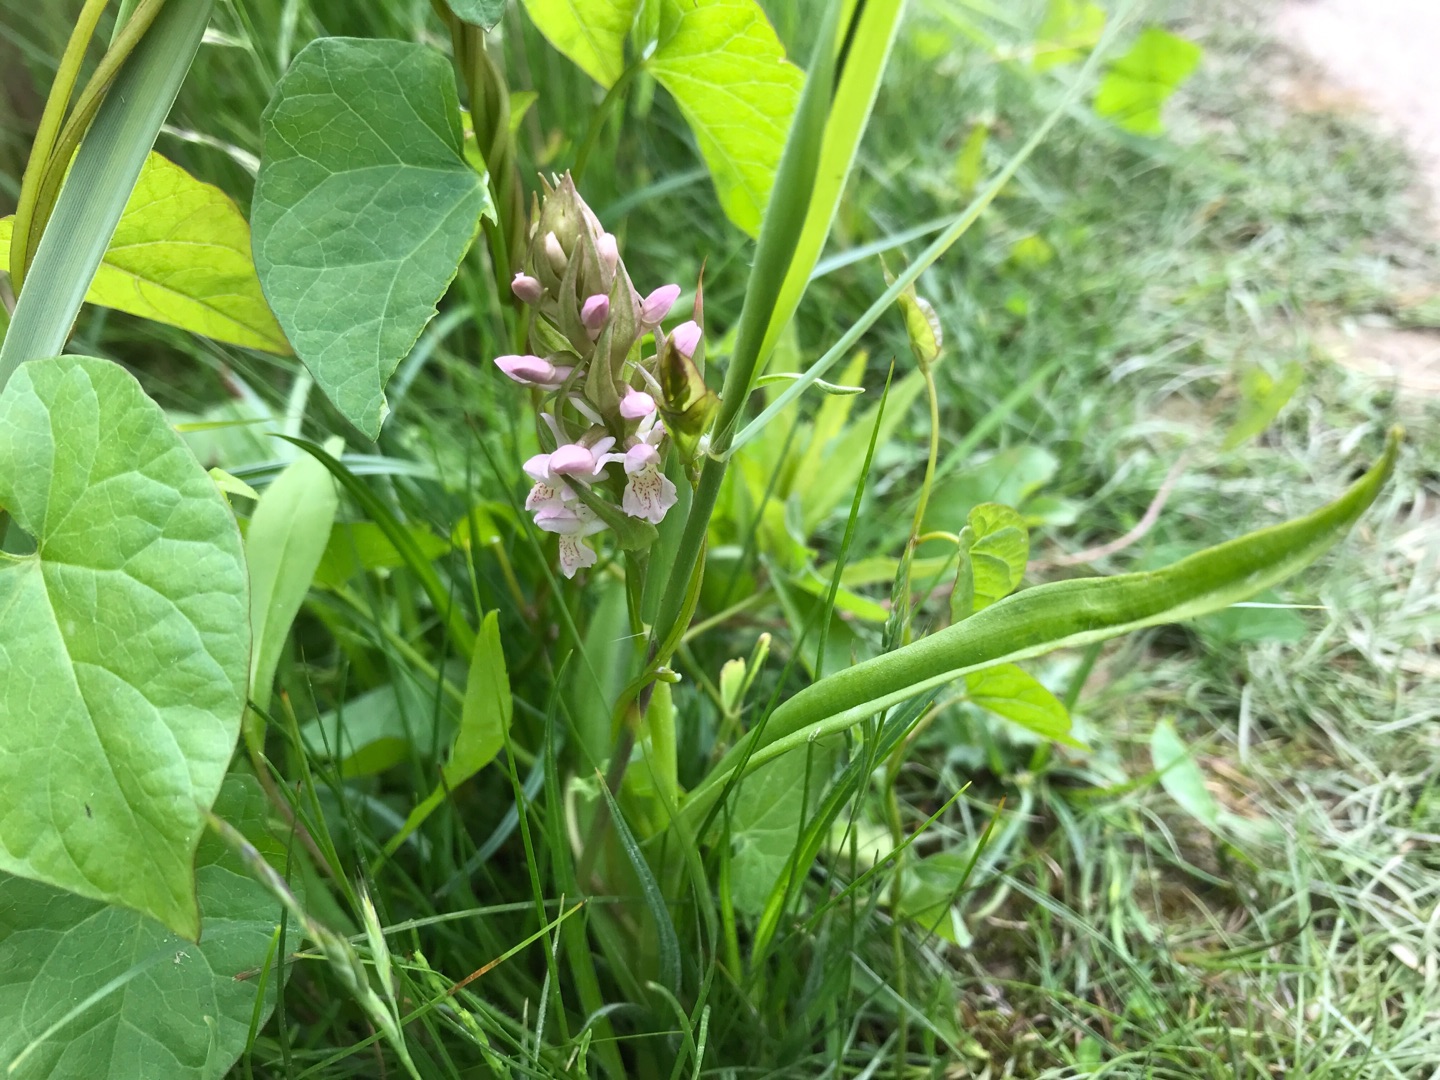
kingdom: Plantae
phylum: Tracheophyta
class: Liliopsida
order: Asparagales
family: Orchidaceae
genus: Dactylorhiza
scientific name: Dactylorhiza incarnata
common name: Kødfarvet gøgeurt
